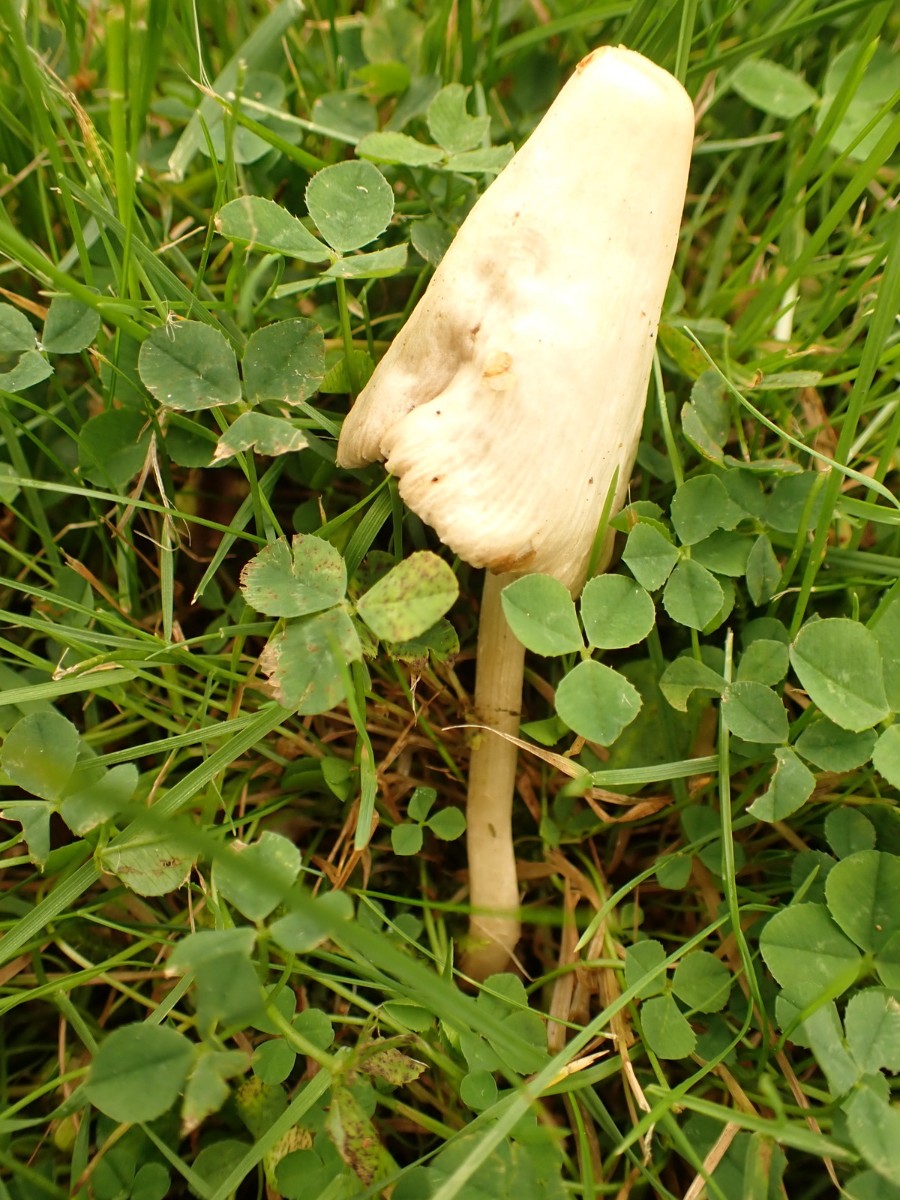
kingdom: Fungi
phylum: Basidiomycota
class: Agaricomycetes
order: Agaricales
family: Bolbitiaceae
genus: Conocybe
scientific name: Conocybe apala
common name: mælkehvid keglehat
